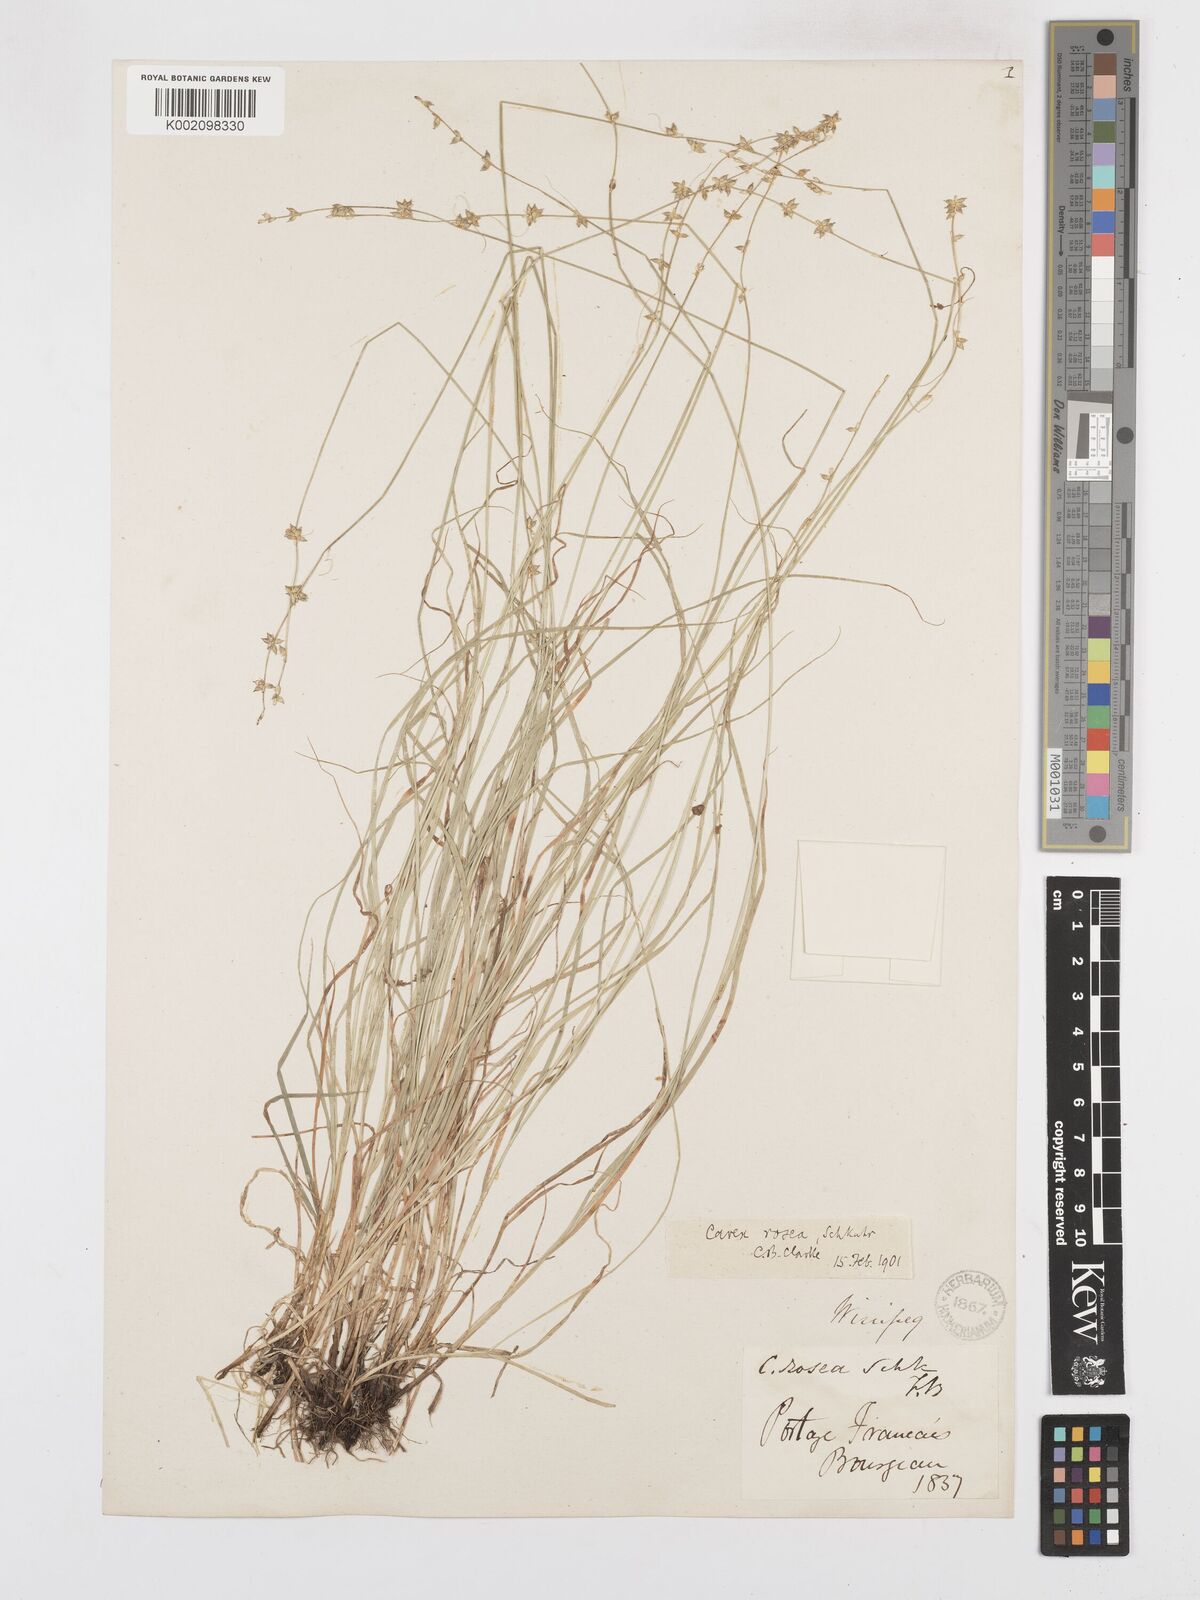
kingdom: Plantae
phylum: Tracheophyta
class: Liliopsida
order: Poales
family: Cyperaceae
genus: Carex
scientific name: Carex rosea
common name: Curly-styled wood sedge
